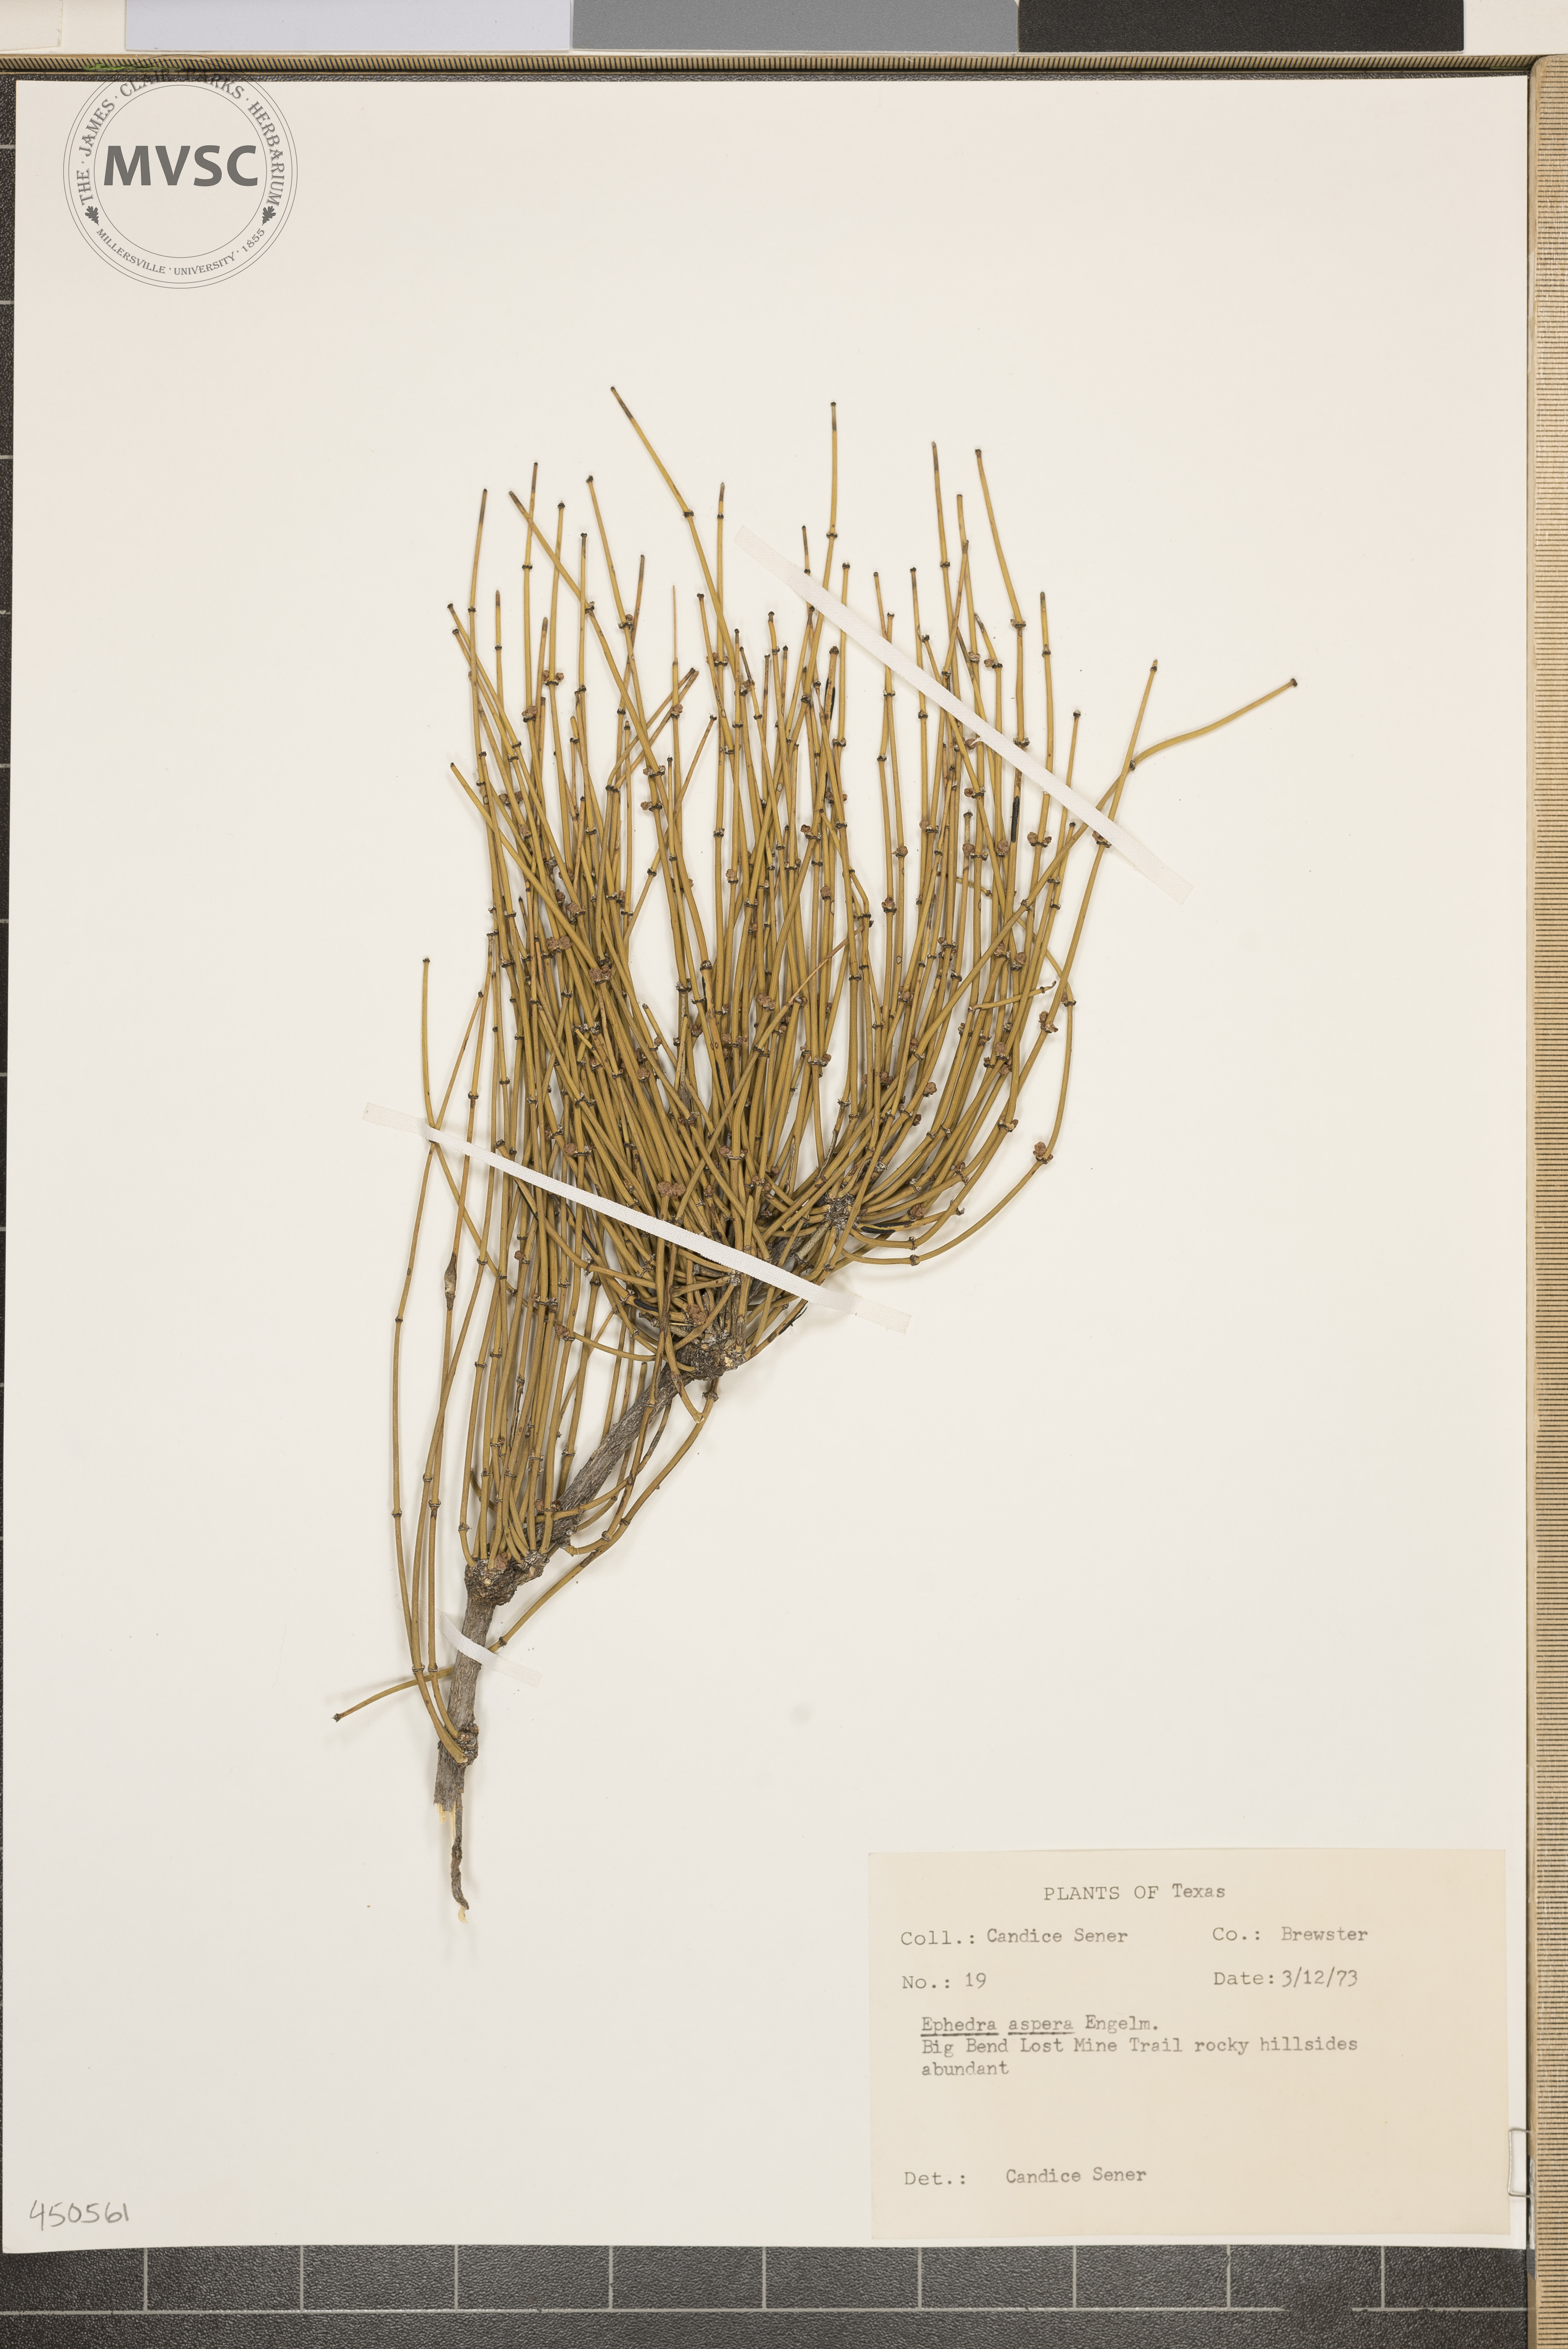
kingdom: Plantae
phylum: Tracheophyta
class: Gnetopsida
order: Ephedrales
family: Ephedraceae
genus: Ephedra
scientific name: Ephedra aspera
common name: Boundary ephedra
